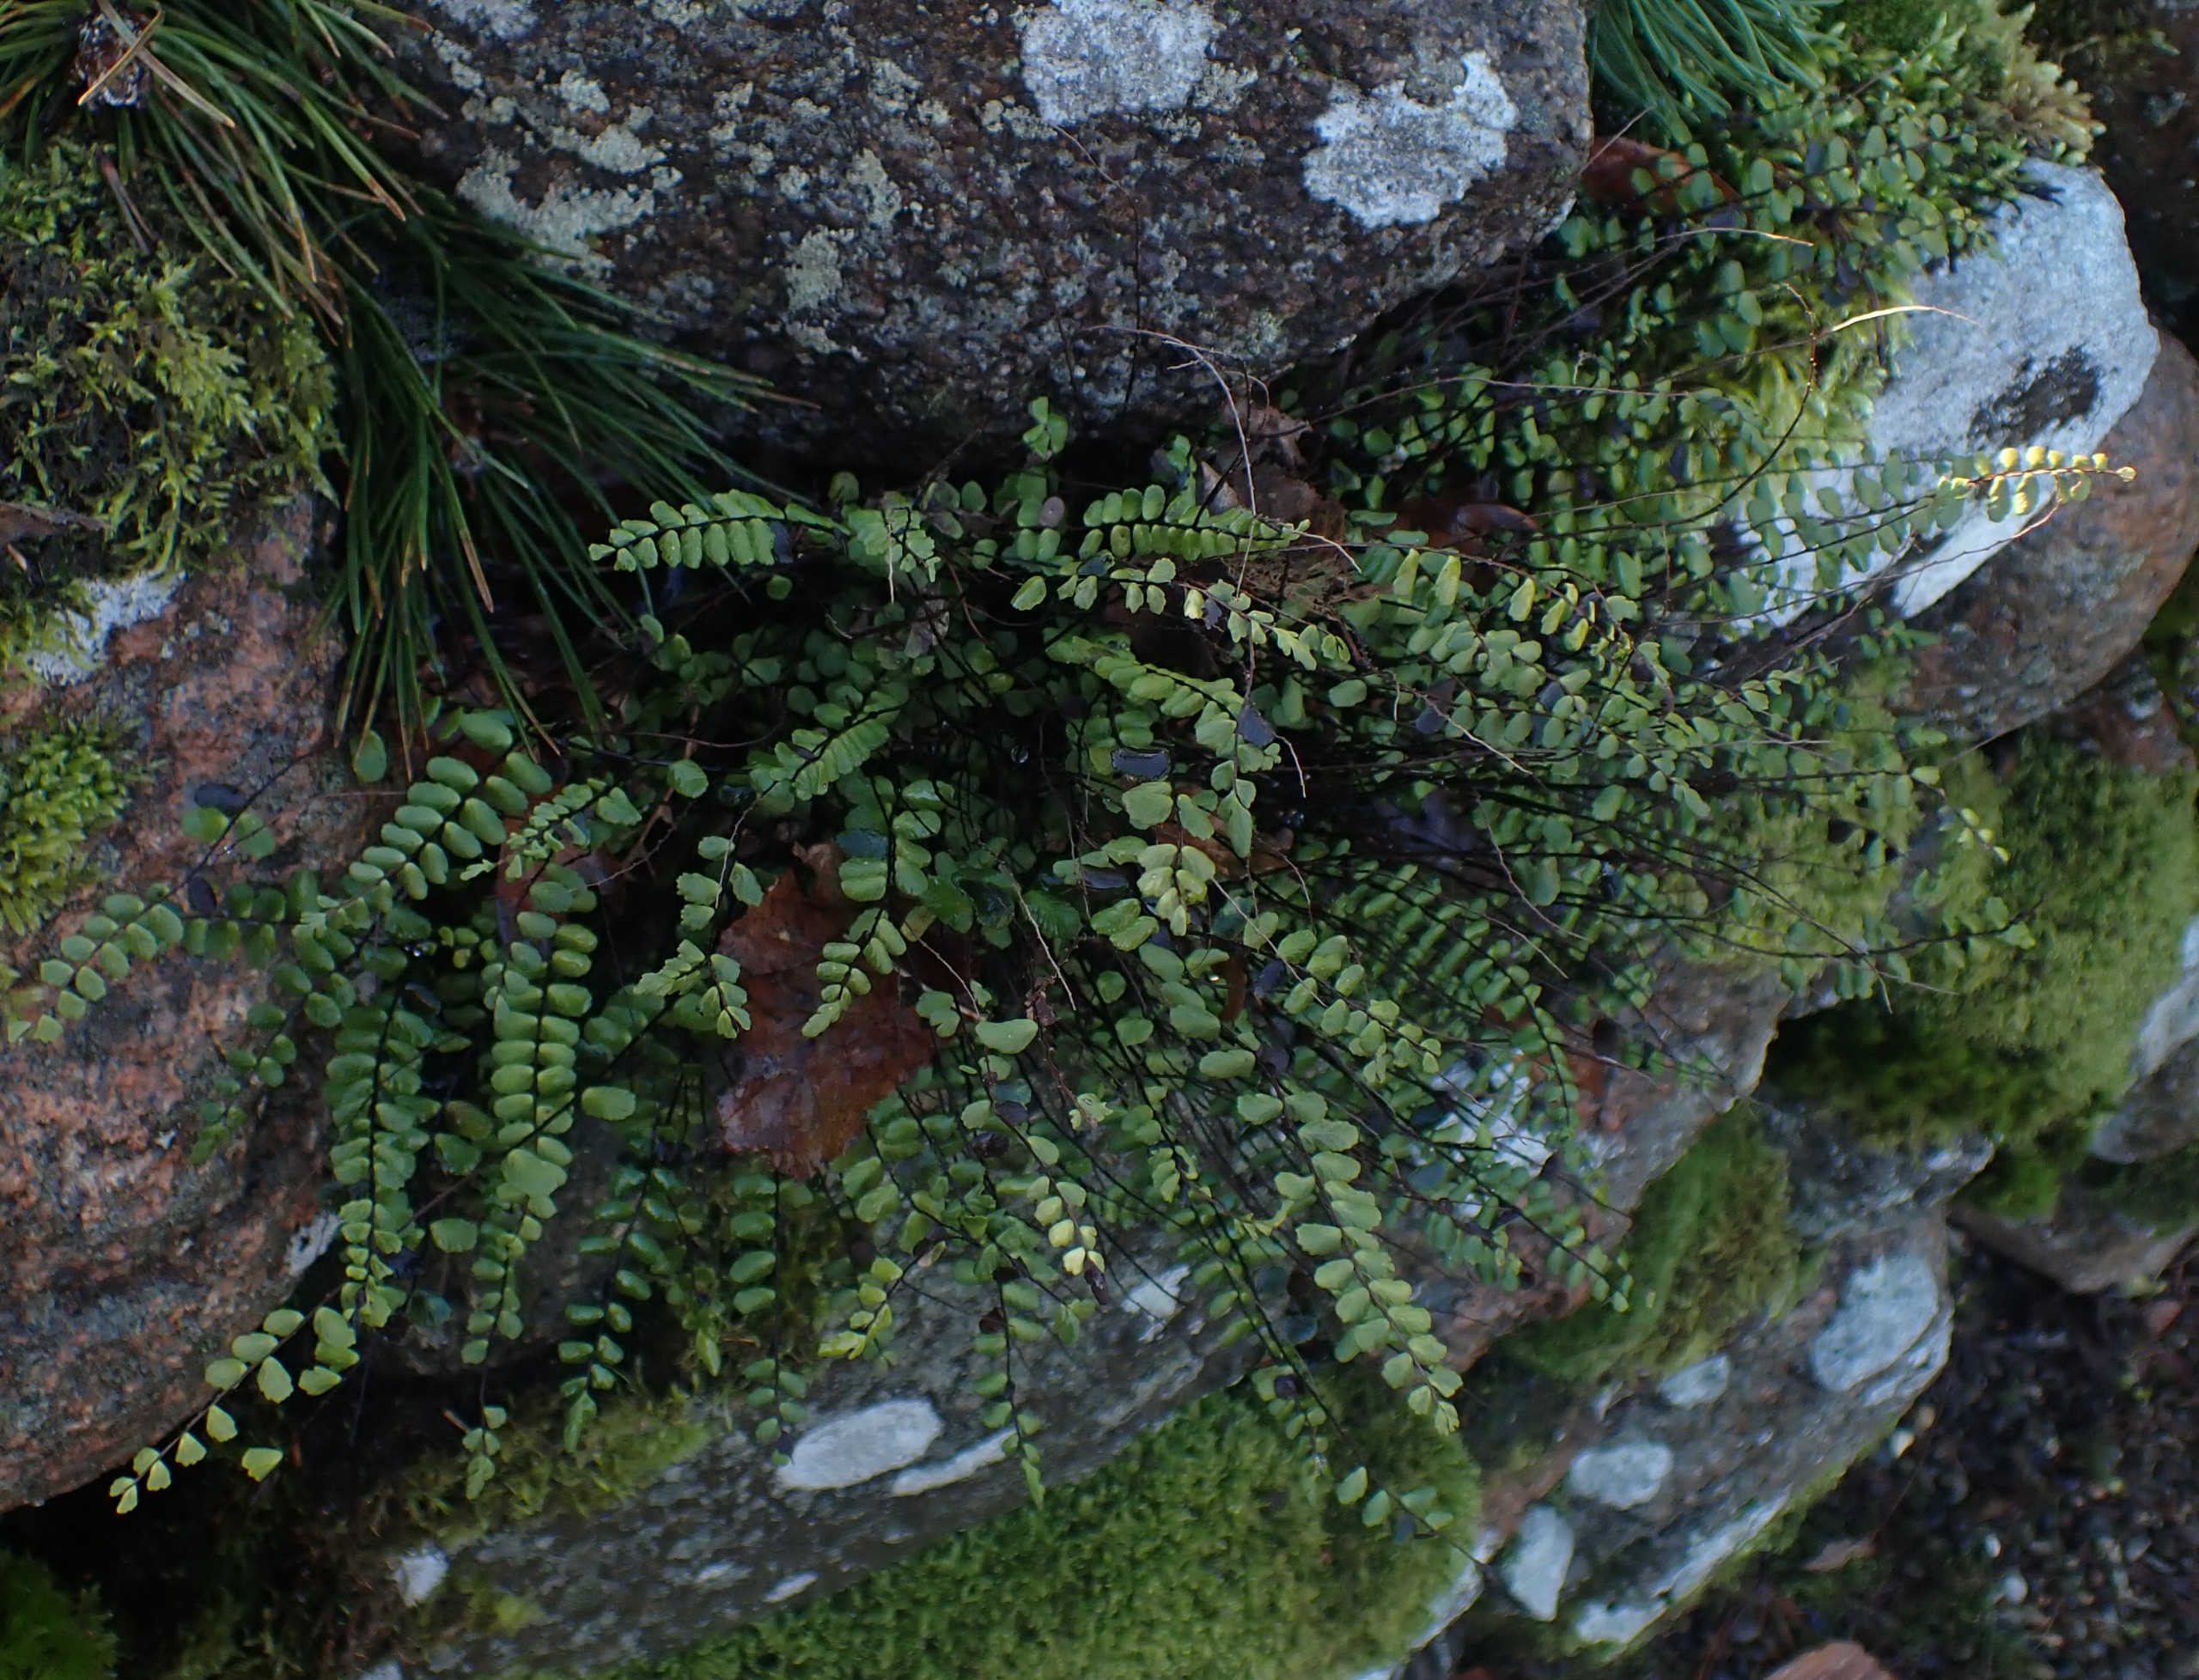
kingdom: Plantae
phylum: Tracheophyta
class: Polypodiopsida
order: Polypodiales
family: Aspleniaceae
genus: Asplenium
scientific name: Asplenium trichomanes
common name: Rundfinnet radeløv
